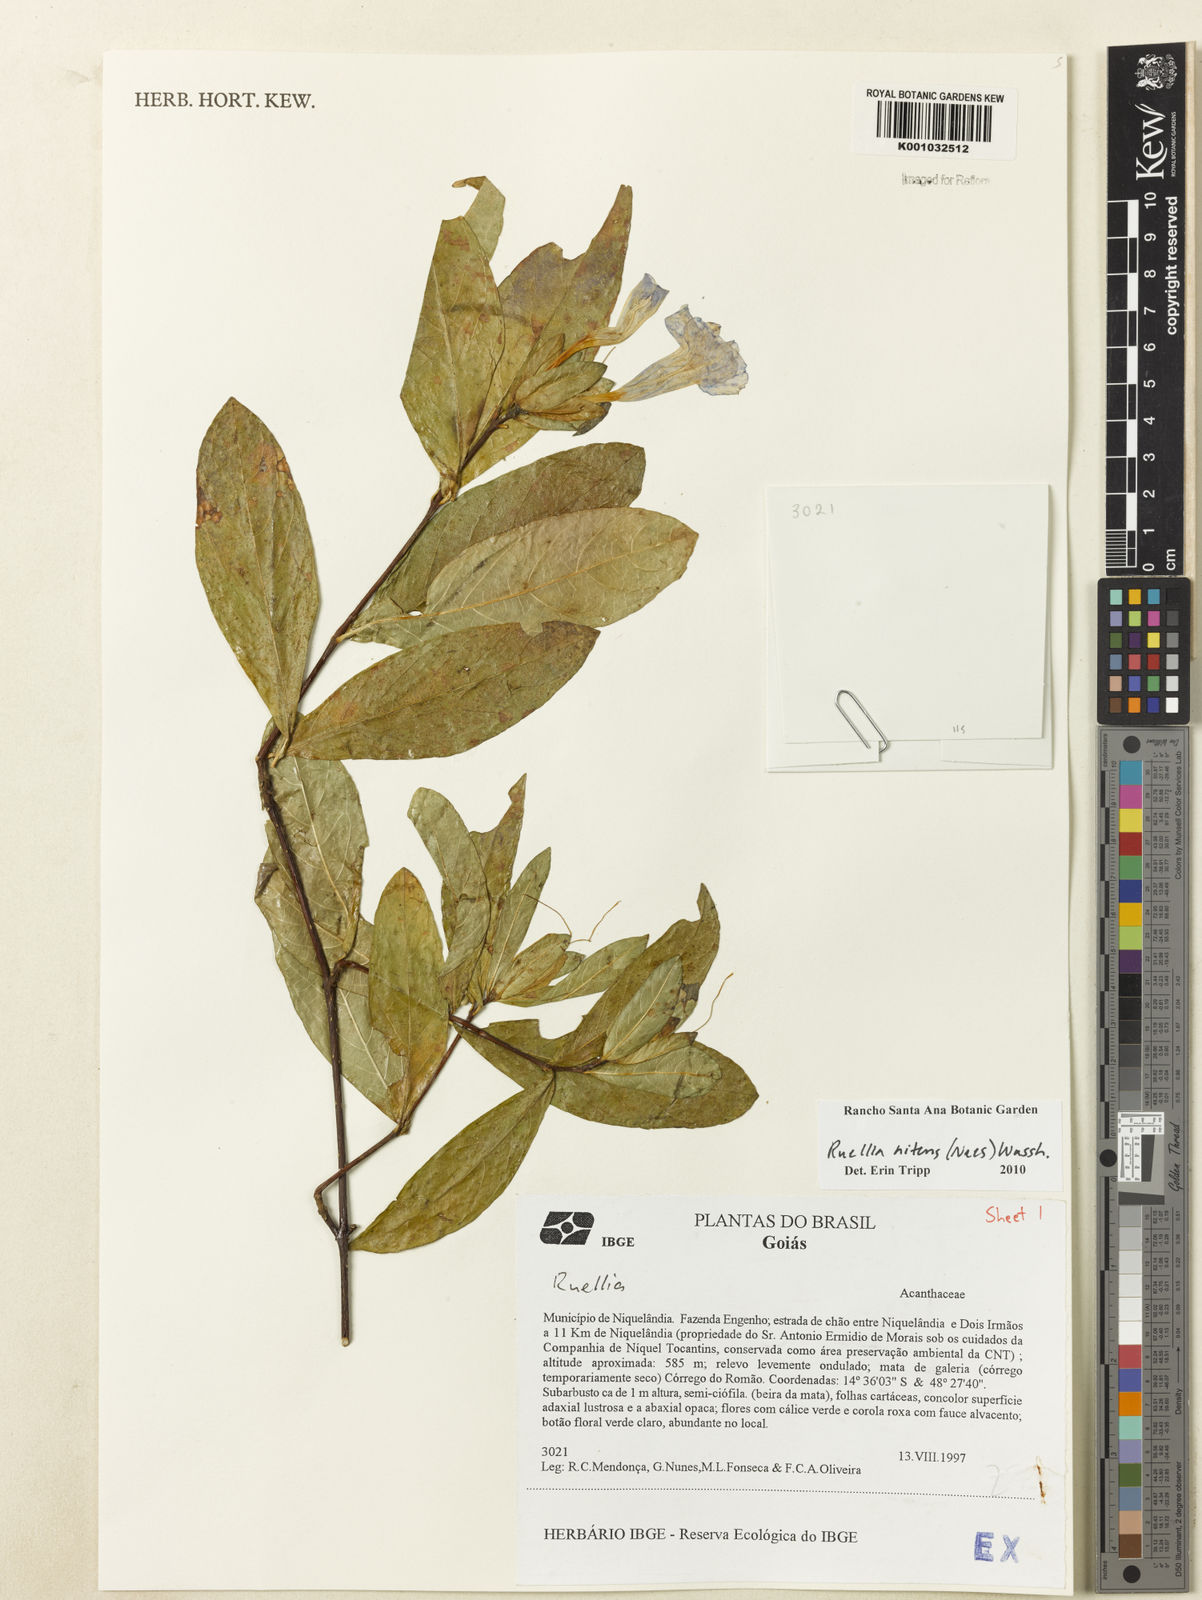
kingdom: Plantae
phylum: Tracheophyta
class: Magnoliopsida
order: Lamiales
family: Acanthaceae
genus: Ruellia
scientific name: Ruellia nitens
